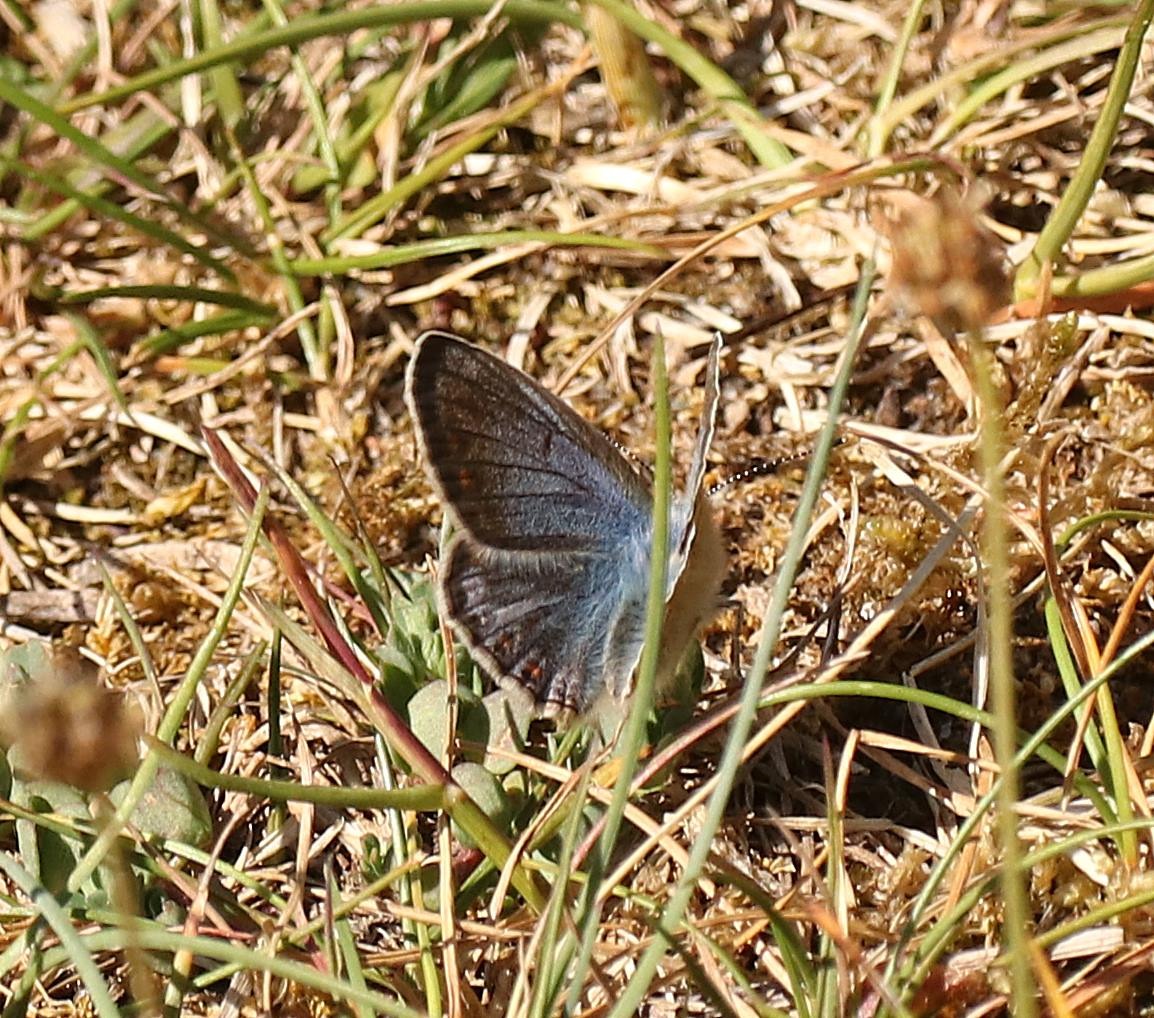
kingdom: Animalia
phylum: Arthropoda
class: Insecta
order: Lepidoptera
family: Lycaenidae
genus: Polyommatus
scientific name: Polyommatus icarus
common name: Almindelig blåfugl
